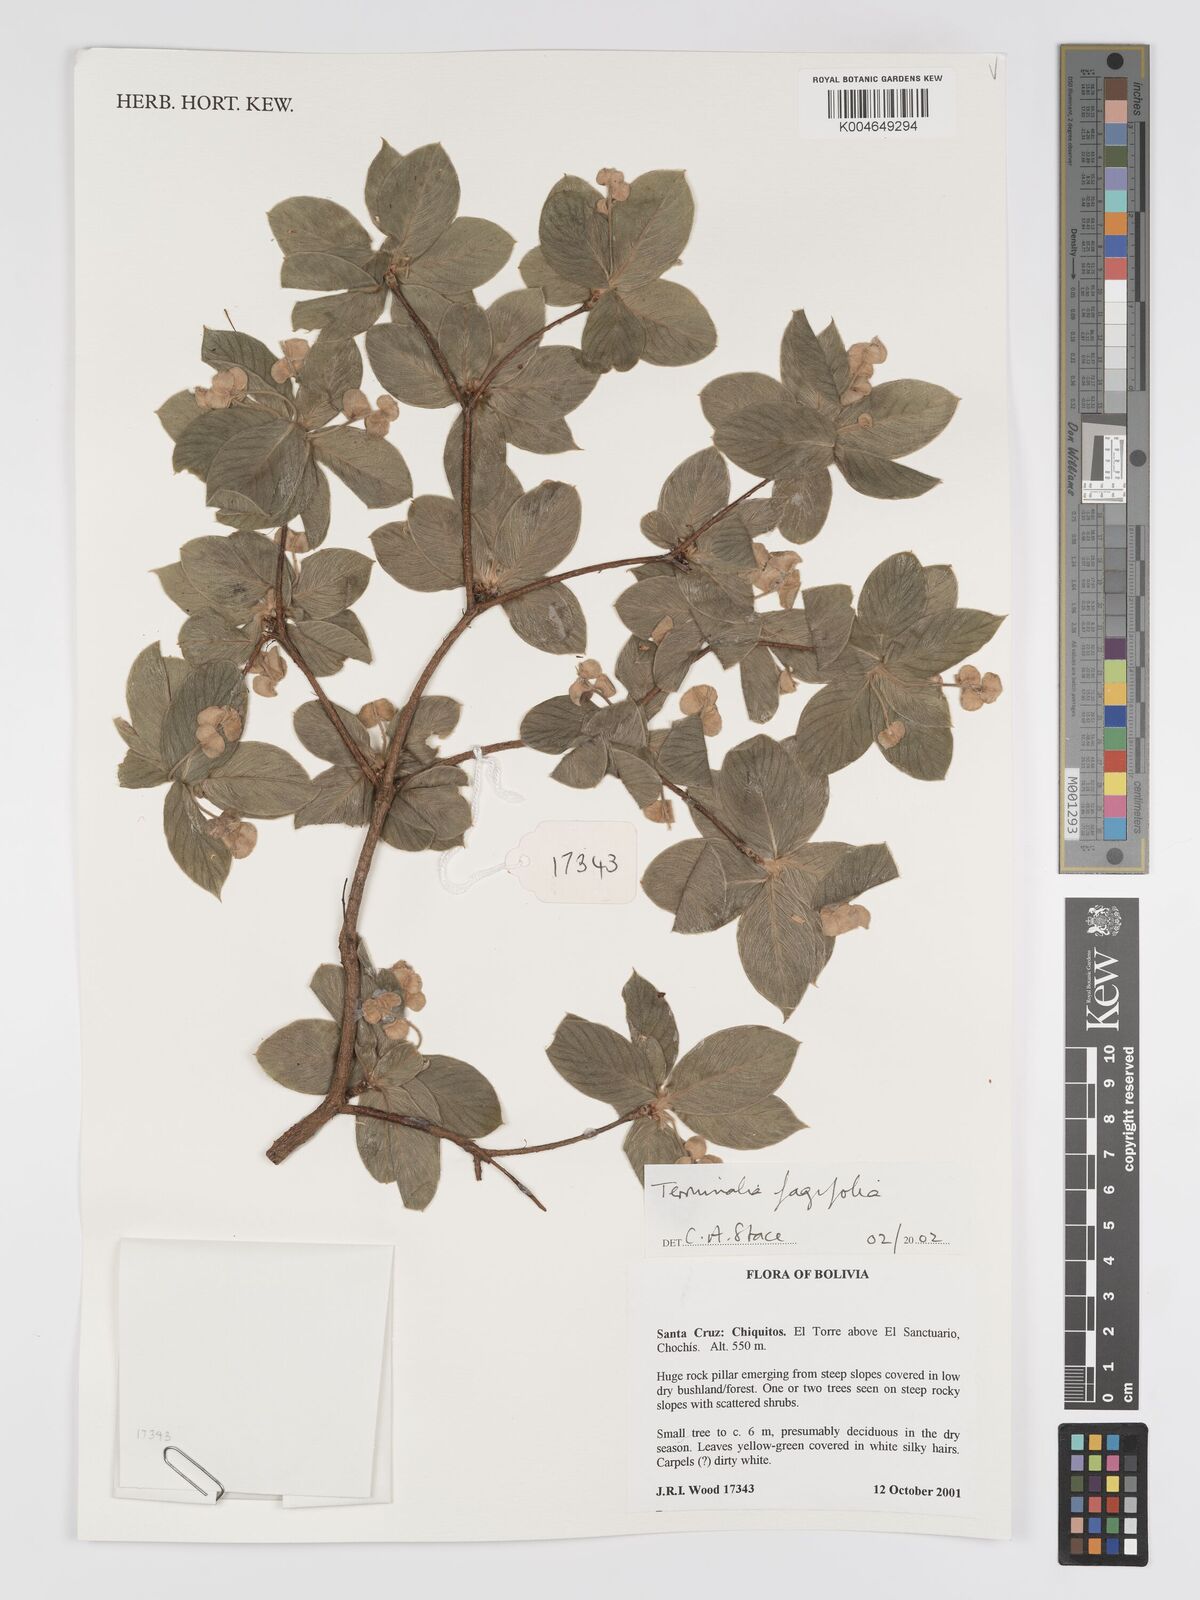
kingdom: Plantae
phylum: Tracheophyta
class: Magnoliopsida
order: Myrtales
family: Combretaceae
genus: Terminalia
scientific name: Terminalia fagifolia
